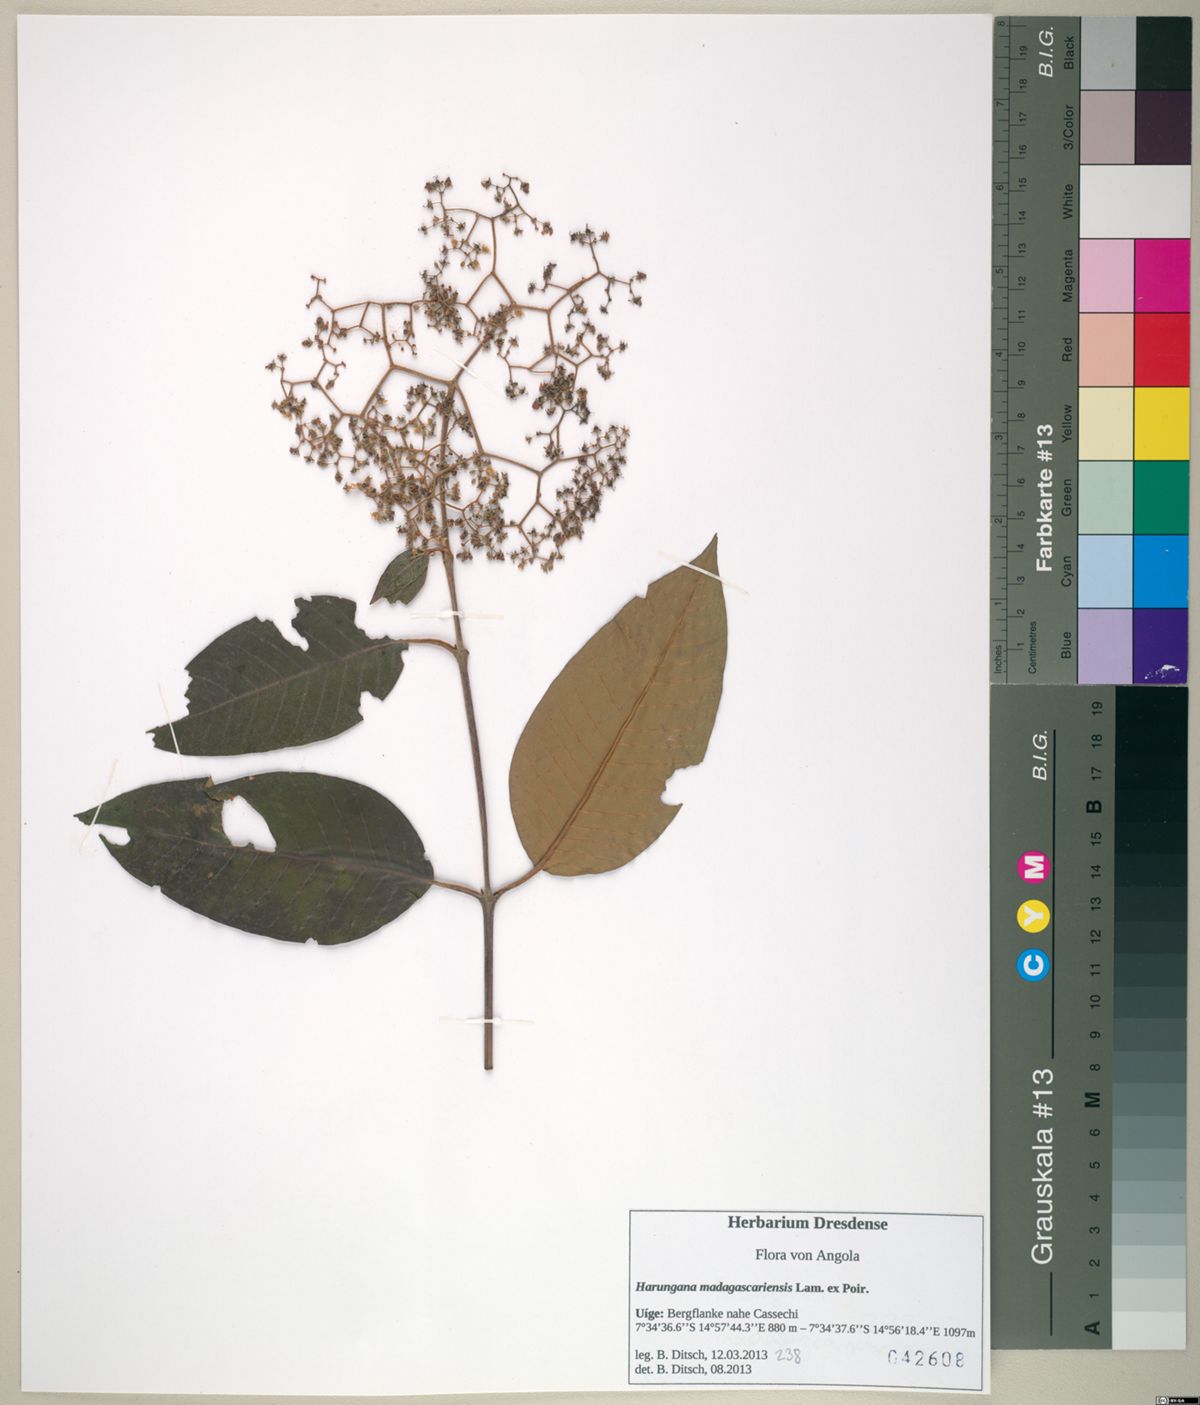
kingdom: Plantae
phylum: Tracheophyta
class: Magnoliopsida
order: Malpighiales
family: Hypericaceae
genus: Harungana
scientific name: Harungana madagascariensis
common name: Orange milktree
